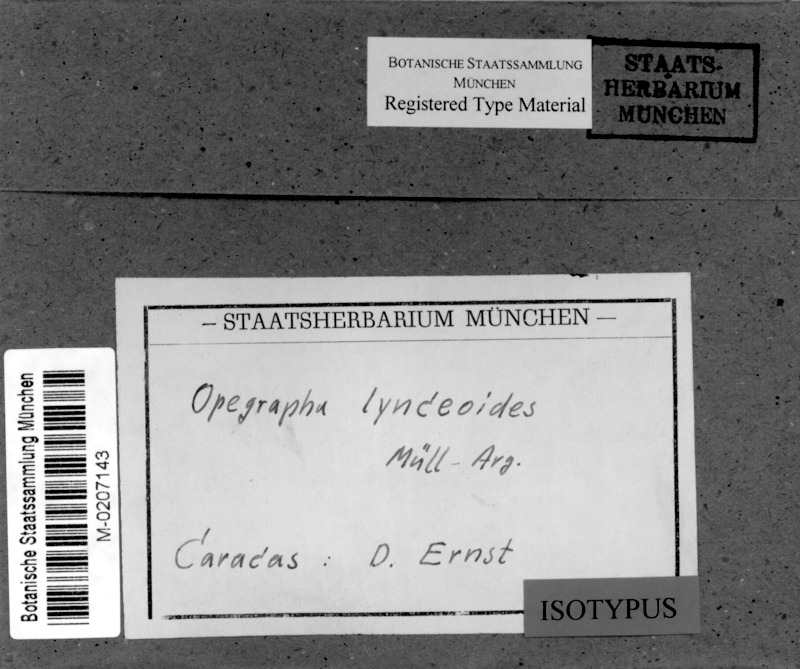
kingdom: Fungi
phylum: Ascomycota
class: Arthoniomycetes
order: Arthoniales
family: Lecanographaceae
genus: Lecanographa
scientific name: Lecanographa lynceoides
